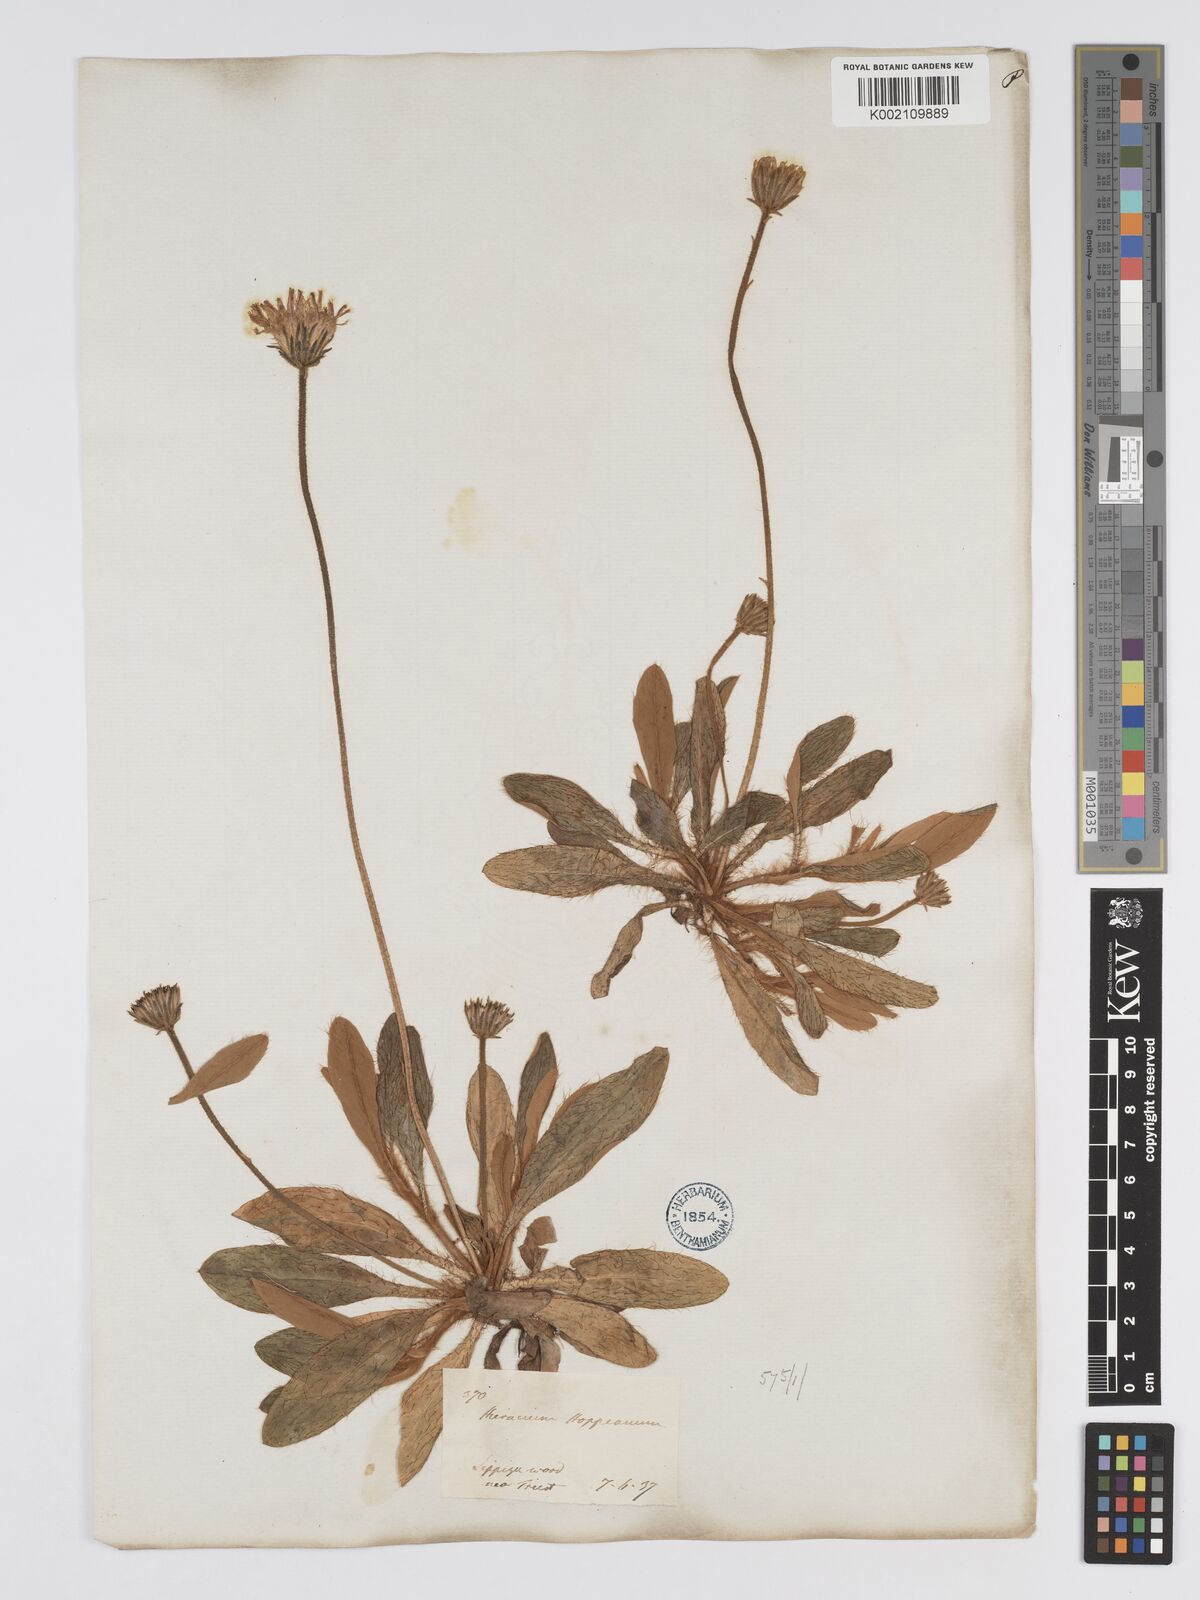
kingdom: Plantae
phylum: Tracheophyta
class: Magnoliopsida
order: Asterales
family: Asteraceae
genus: Pilosella
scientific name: Pilosella hoppeana
